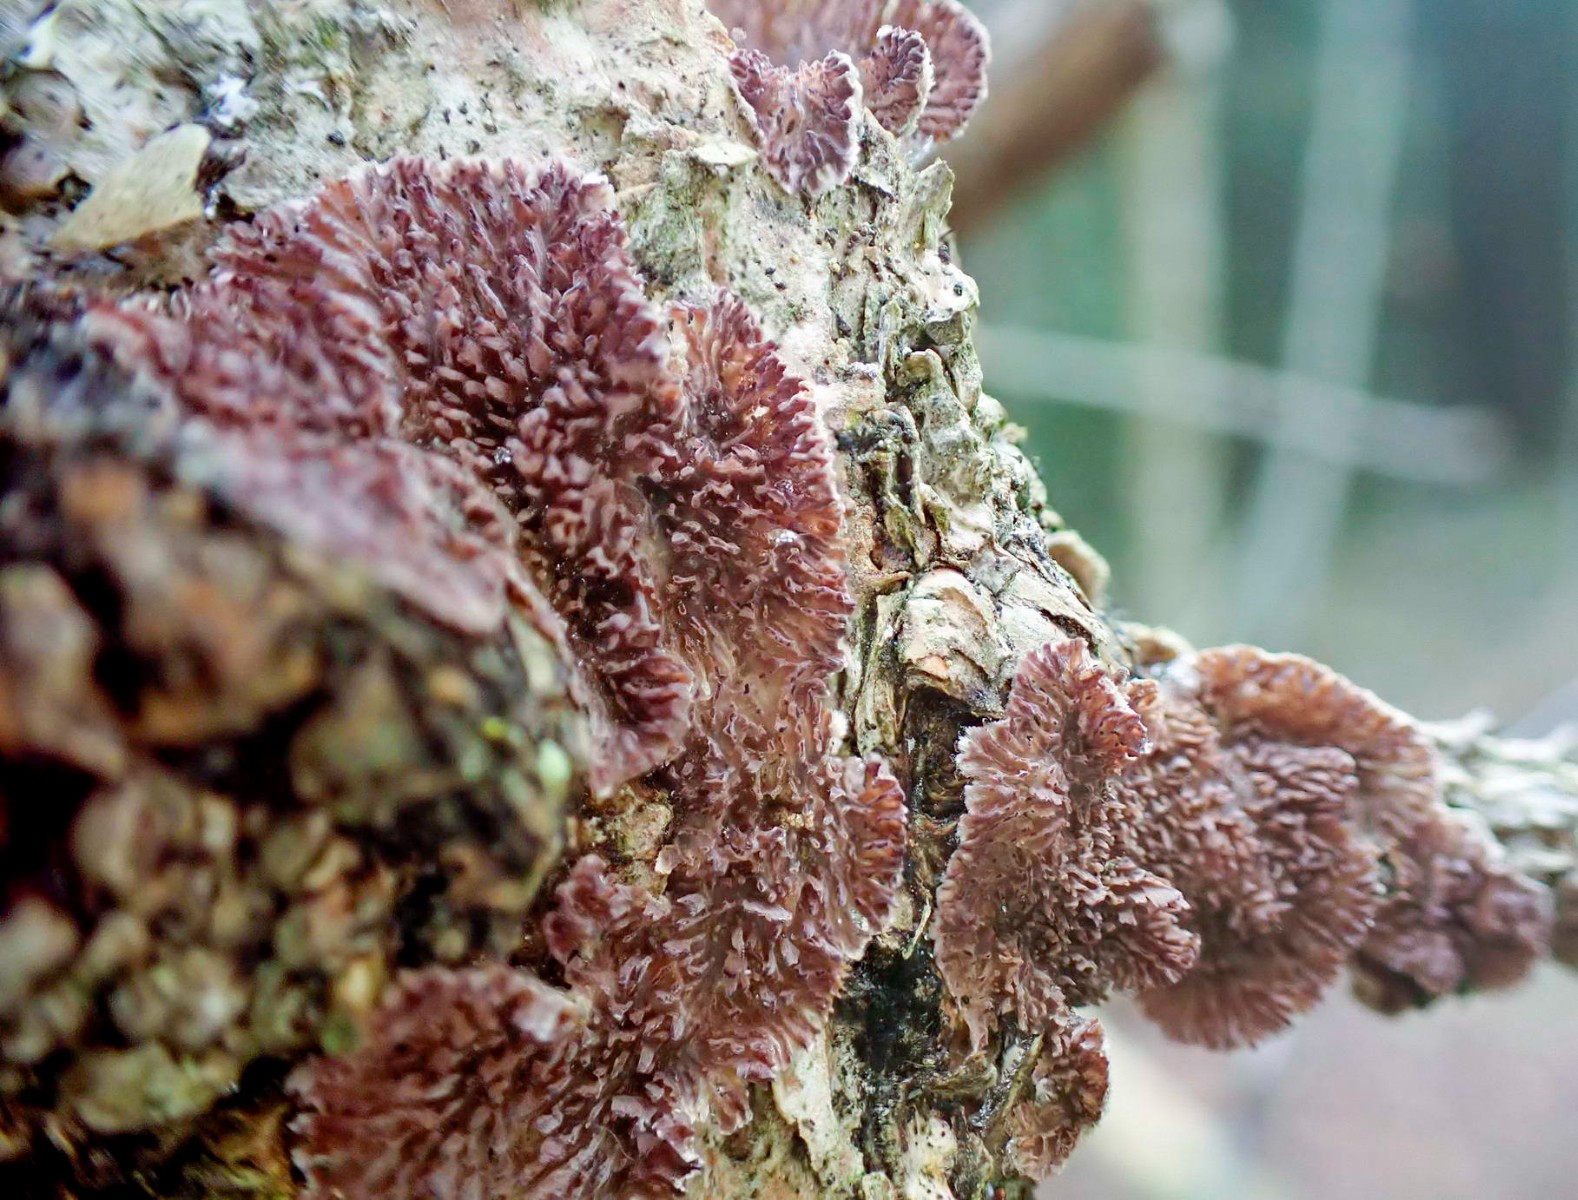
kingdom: Fungi
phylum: Basidiomycota
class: Agaricomycetes
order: Hymenochaetales
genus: Trichaptum
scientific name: Trichaptum fuscoviolaceum
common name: tandet violporesvamp
